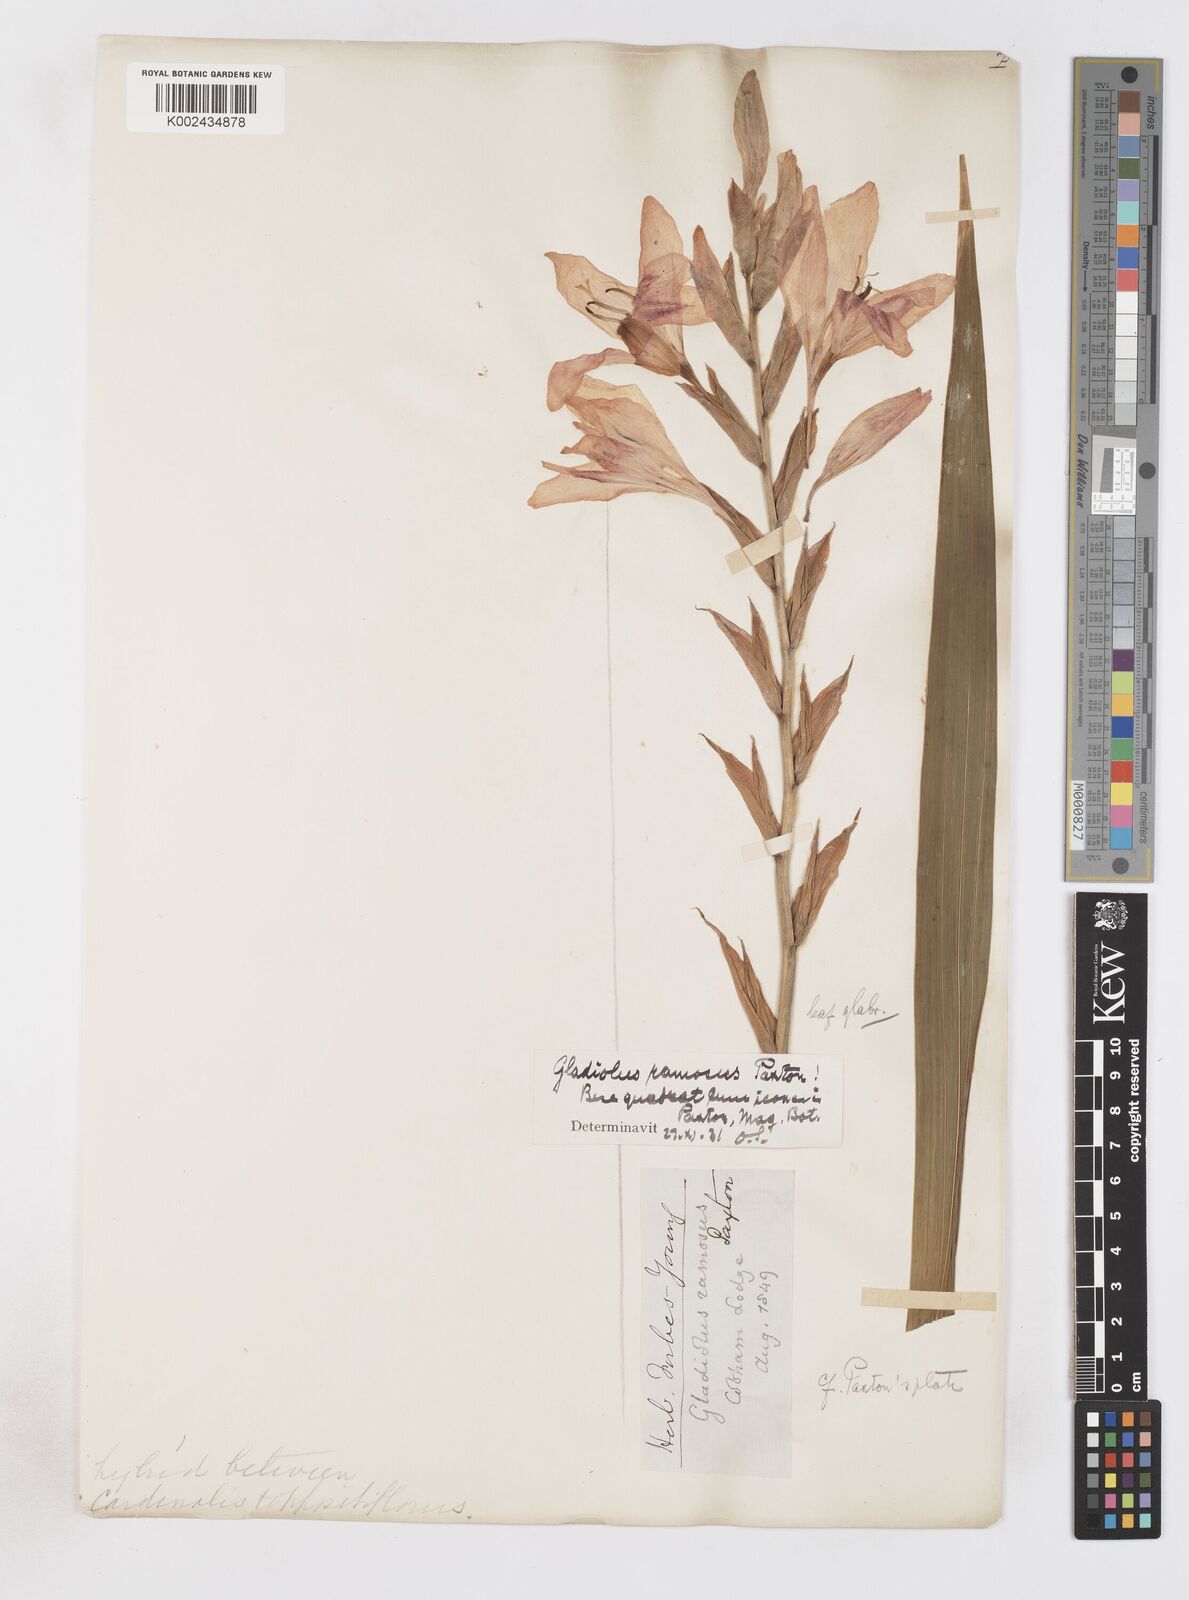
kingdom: Plantae
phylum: Tracheophyta
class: Liliopsida
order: Asparagales
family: Iridaceae
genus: Gladiolus
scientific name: Gladiolus cardinalis
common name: New year-lily
